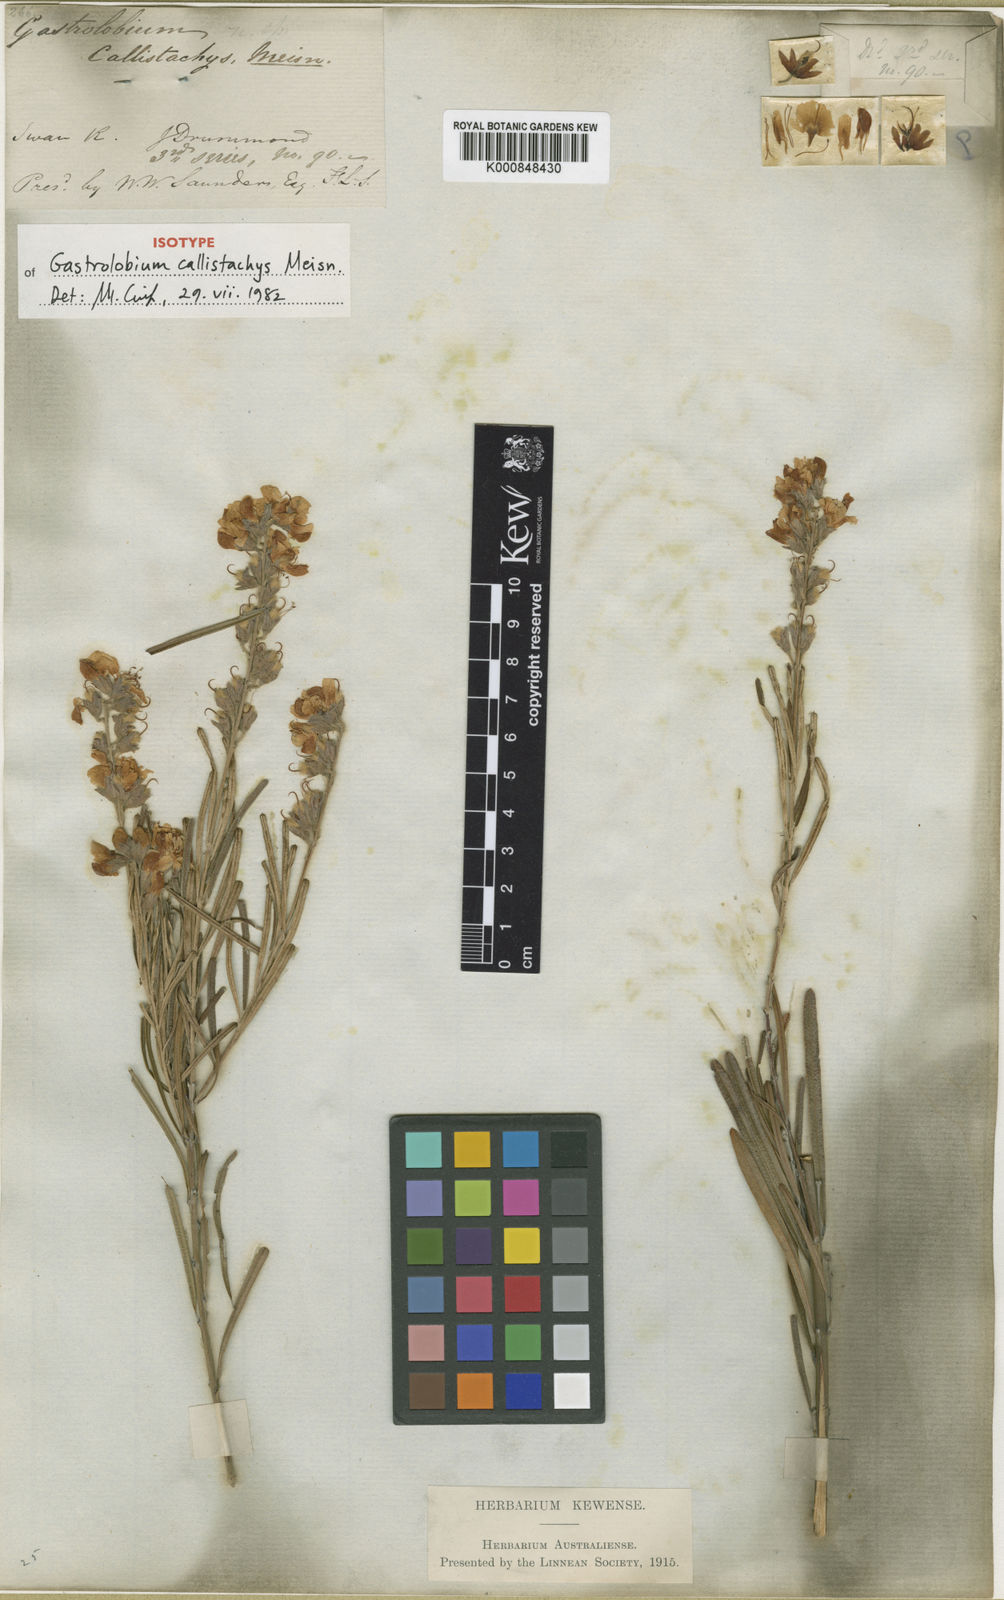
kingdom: Plantae
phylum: Tracheophyta
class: Magnoliopsida
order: Fabales
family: Fabaceae
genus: Gastrolobium
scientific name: Gastrolobium callistachys
